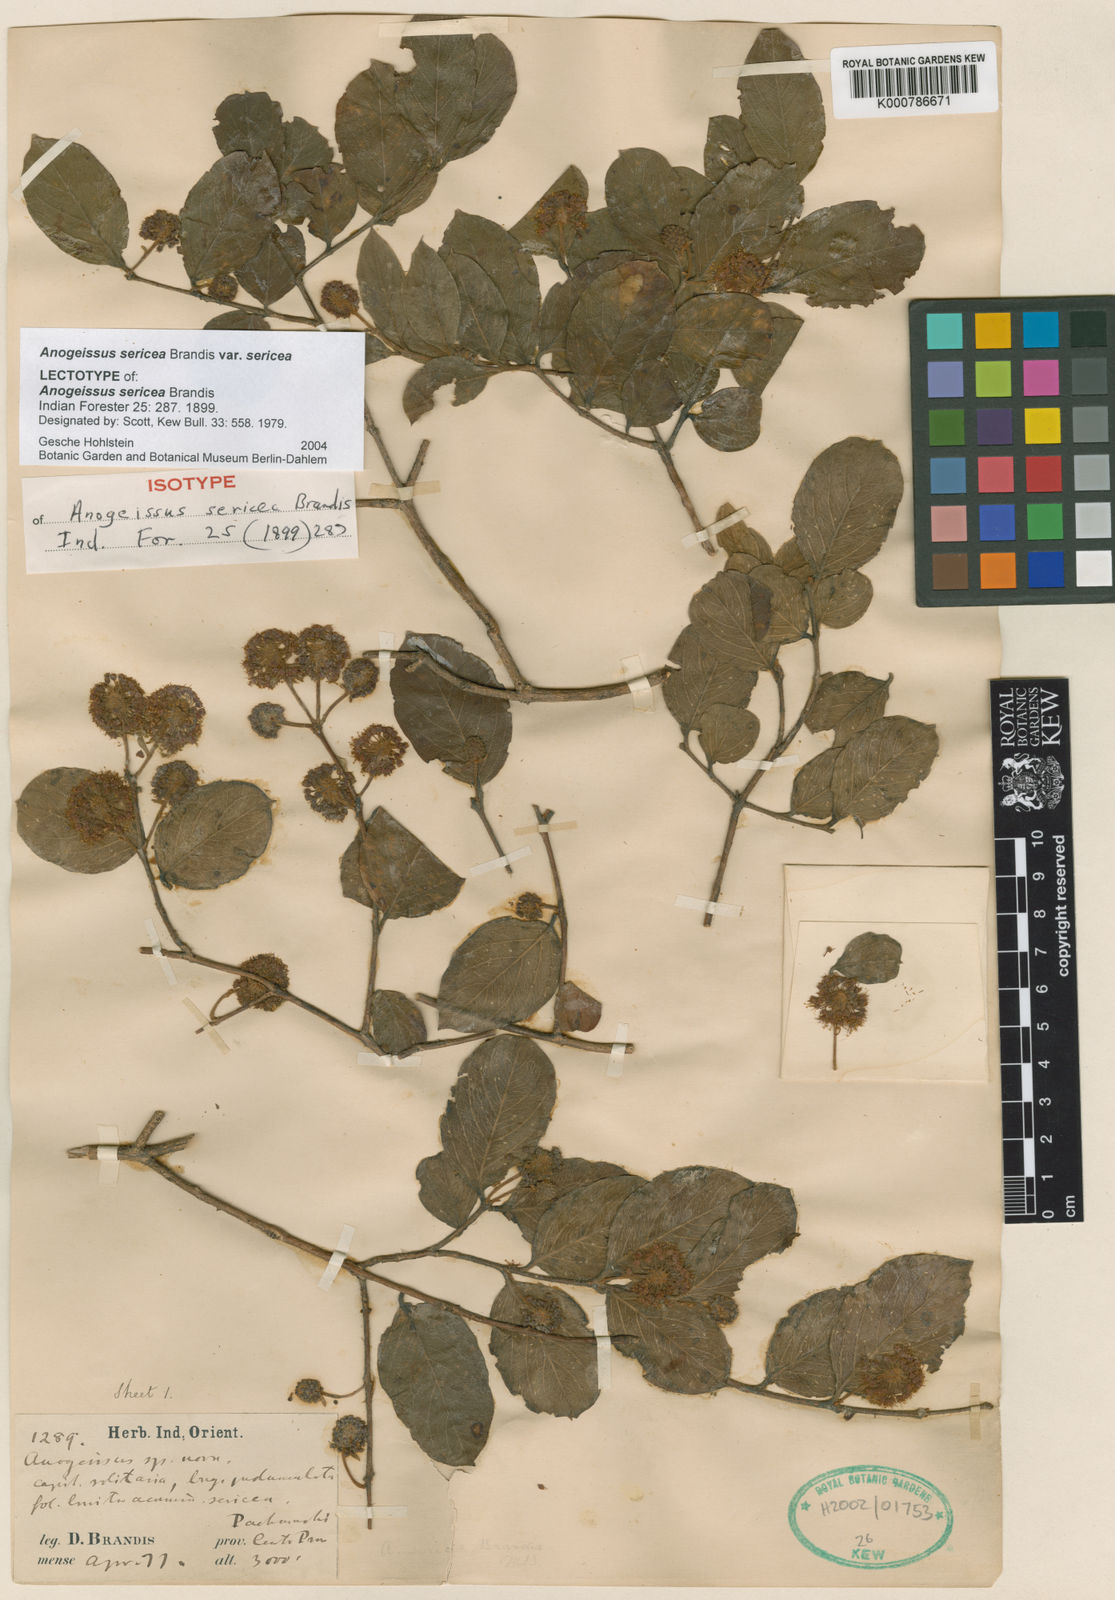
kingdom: Plantae
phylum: Tracheophyta
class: Magnoliopsida
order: Myrtales
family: Combretaceae
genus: Terminalia
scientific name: Terminalia coronata
